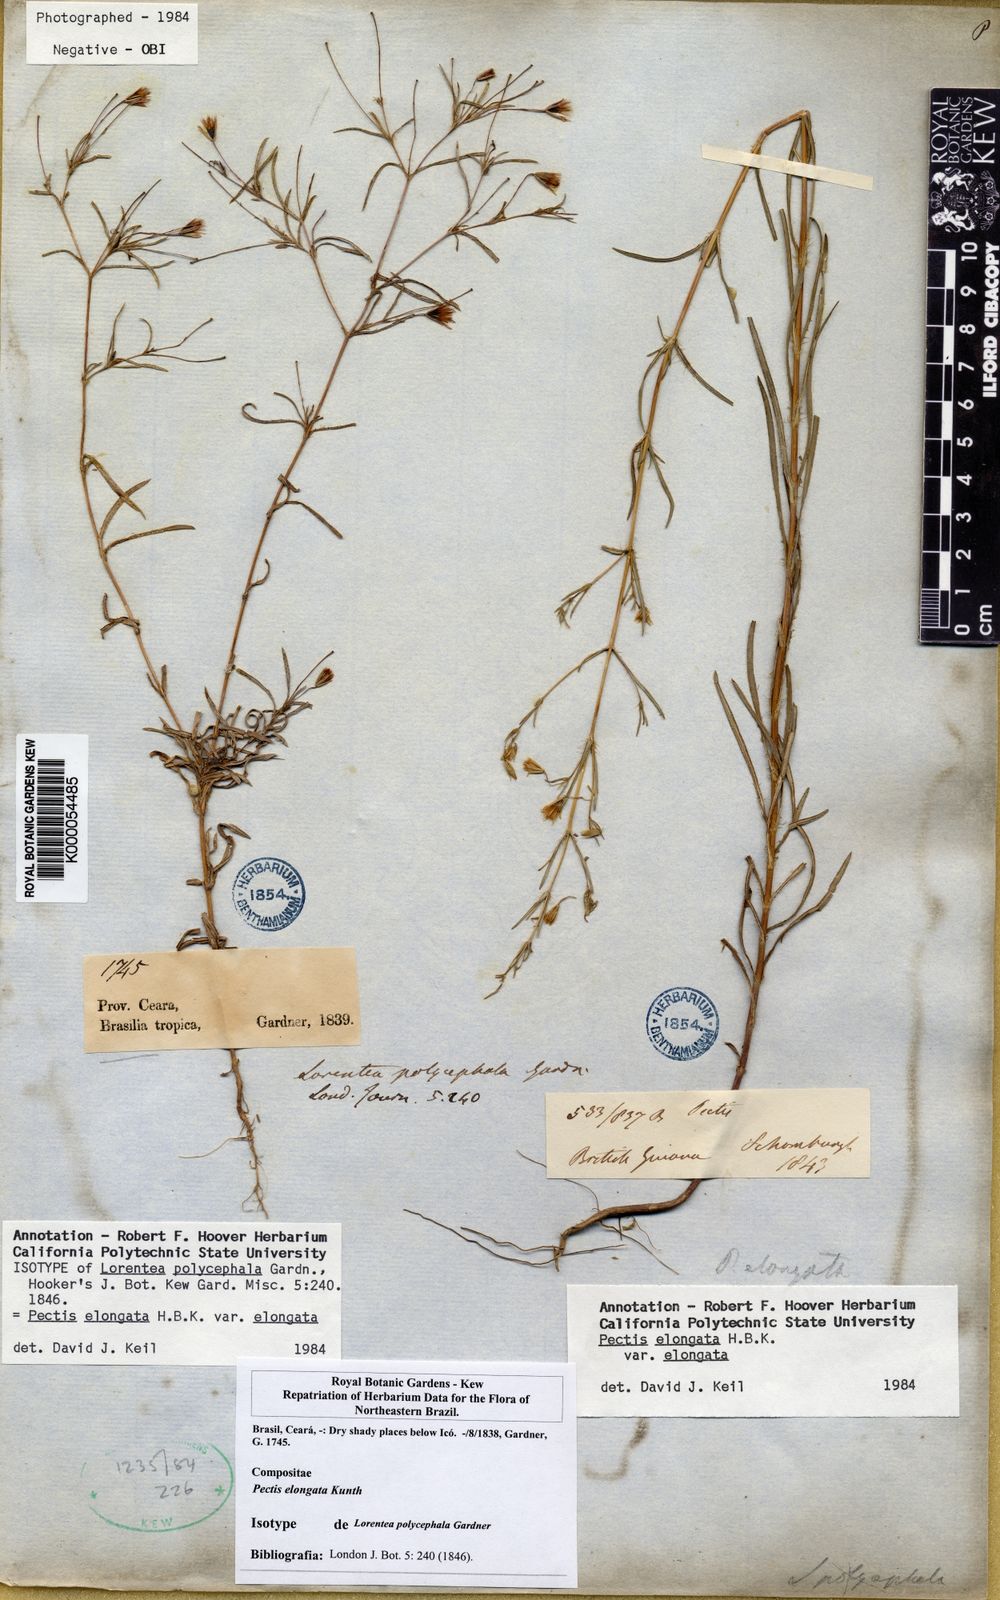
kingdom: Plantae
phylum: Tracheophyta
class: Magnoliopsida
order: Asterales
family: Asteraceae
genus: Pectis
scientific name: Pectis elongata
